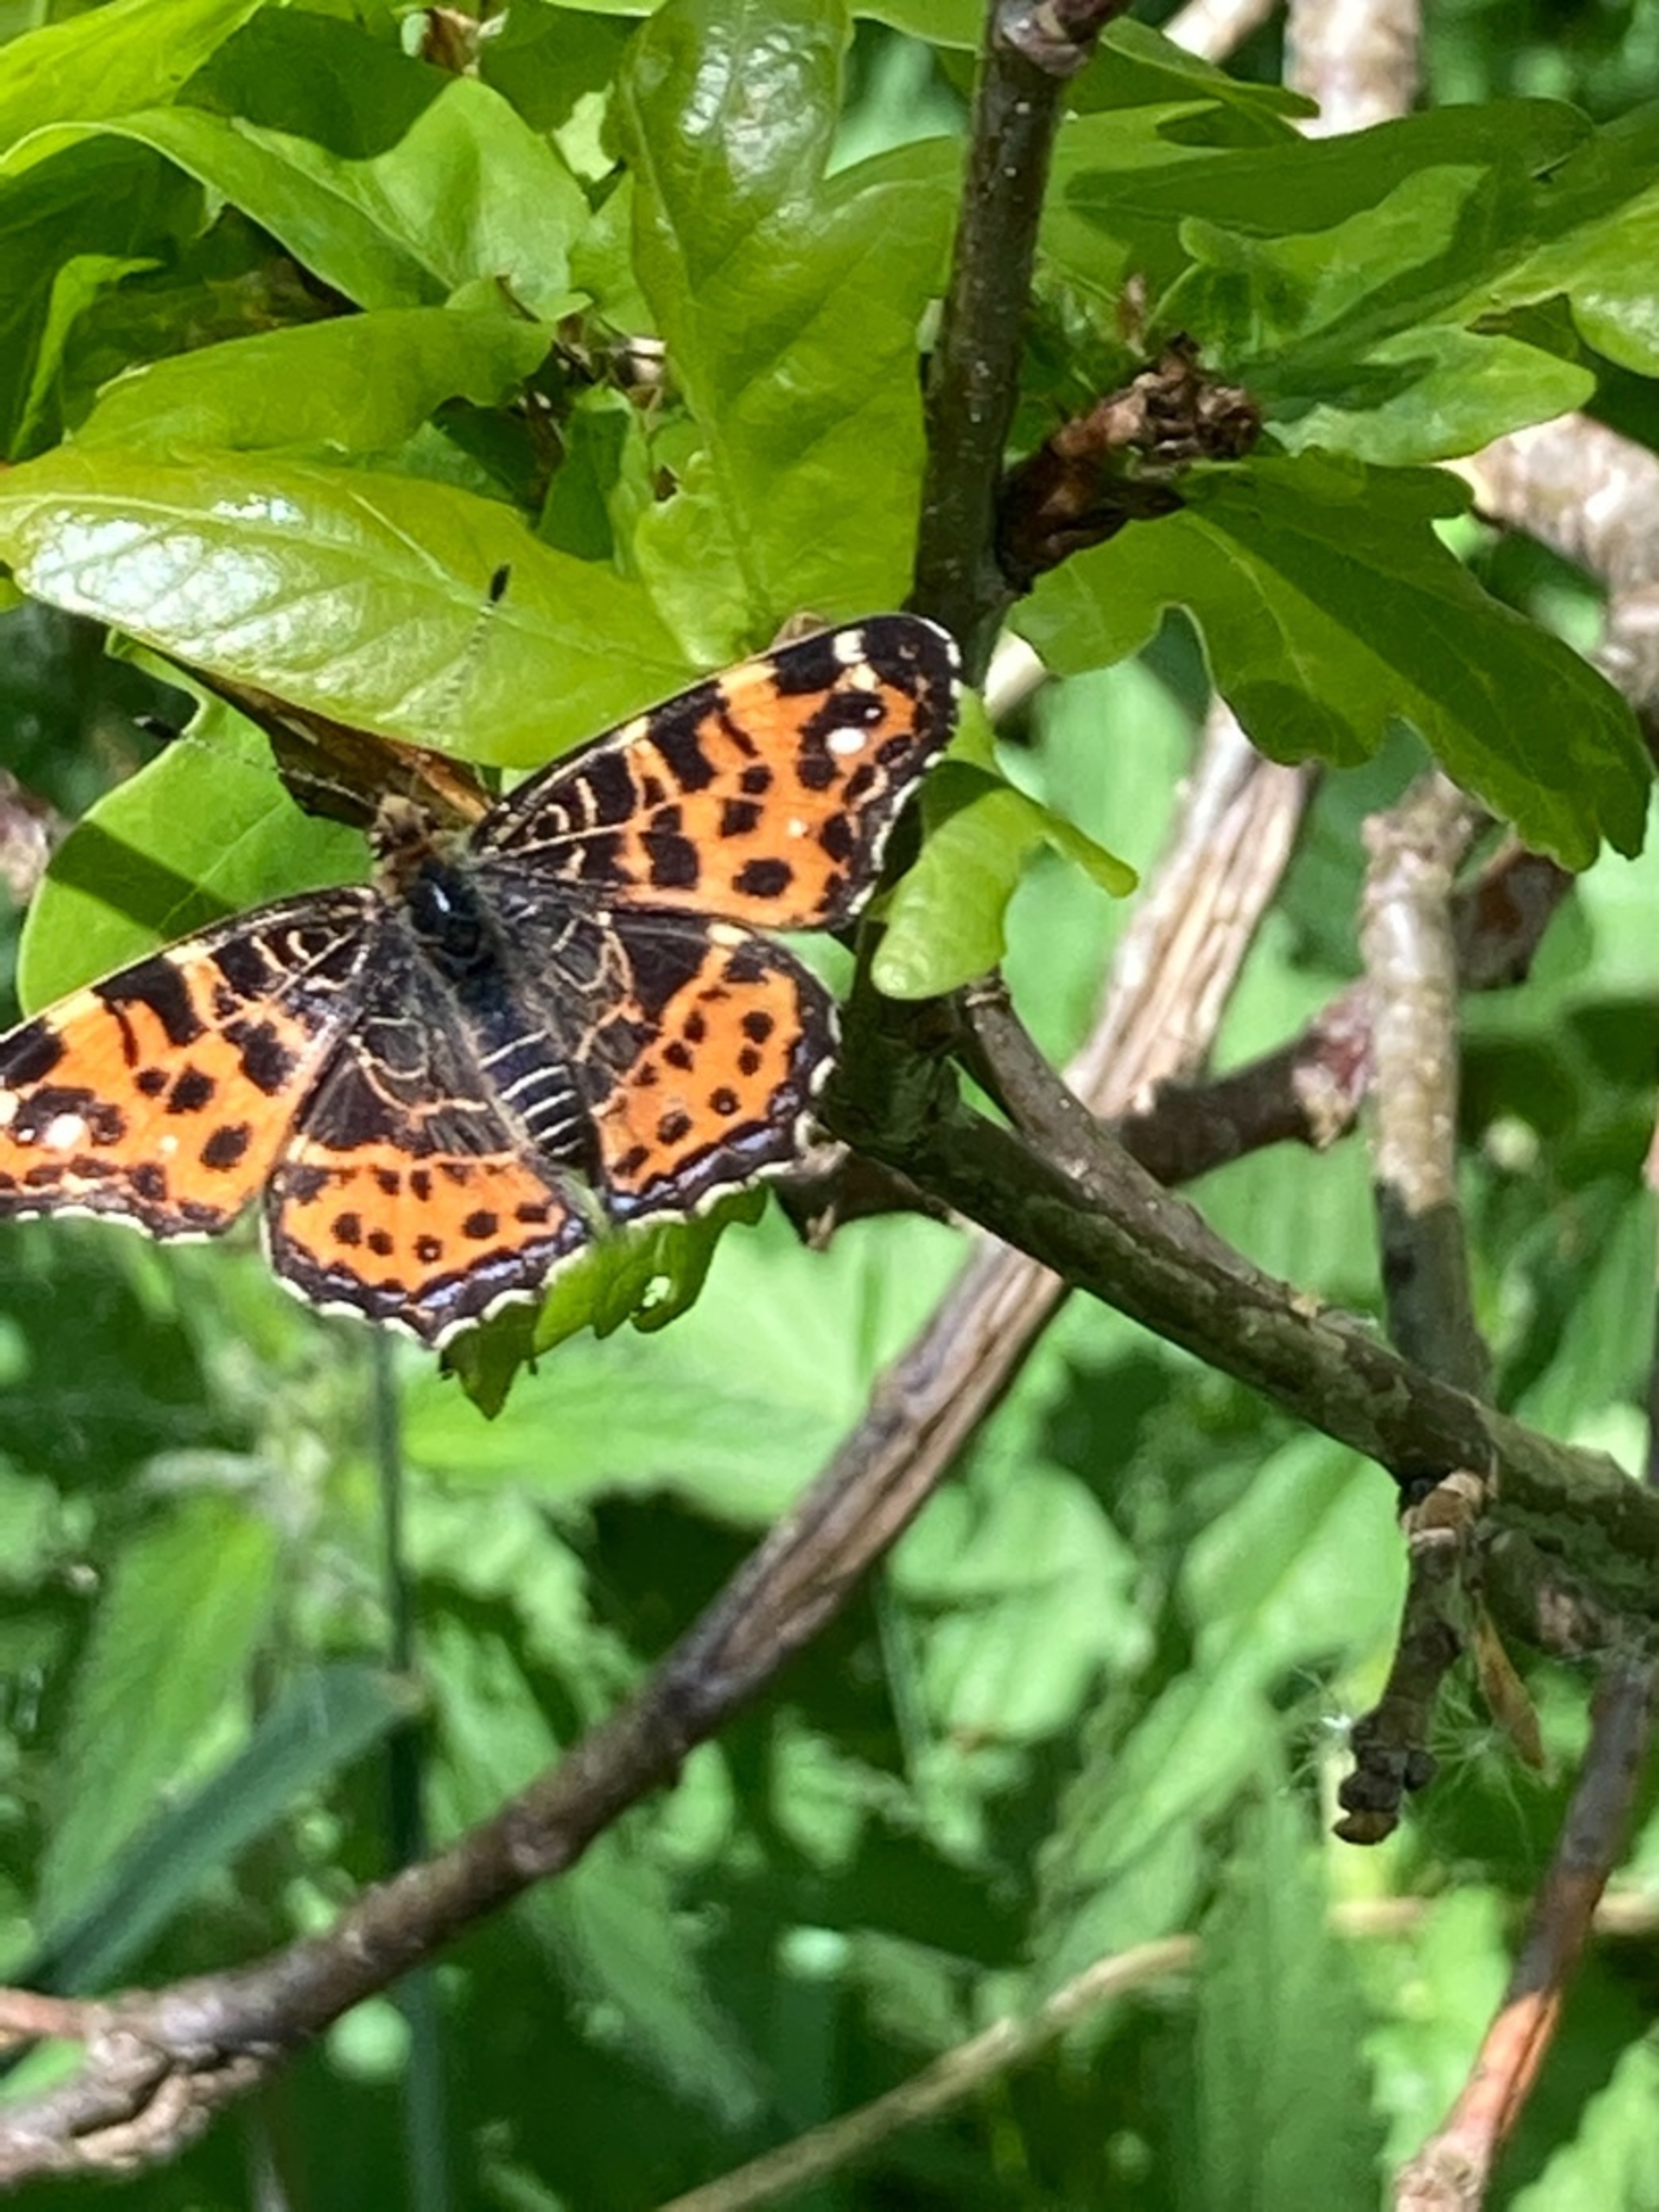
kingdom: Animalia
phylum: Arthropoda
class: Insecta
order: Lepidoptera
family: Nymphalidae
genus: Araschnia
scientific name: Araschnia levana
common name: Nældesommerfugl
